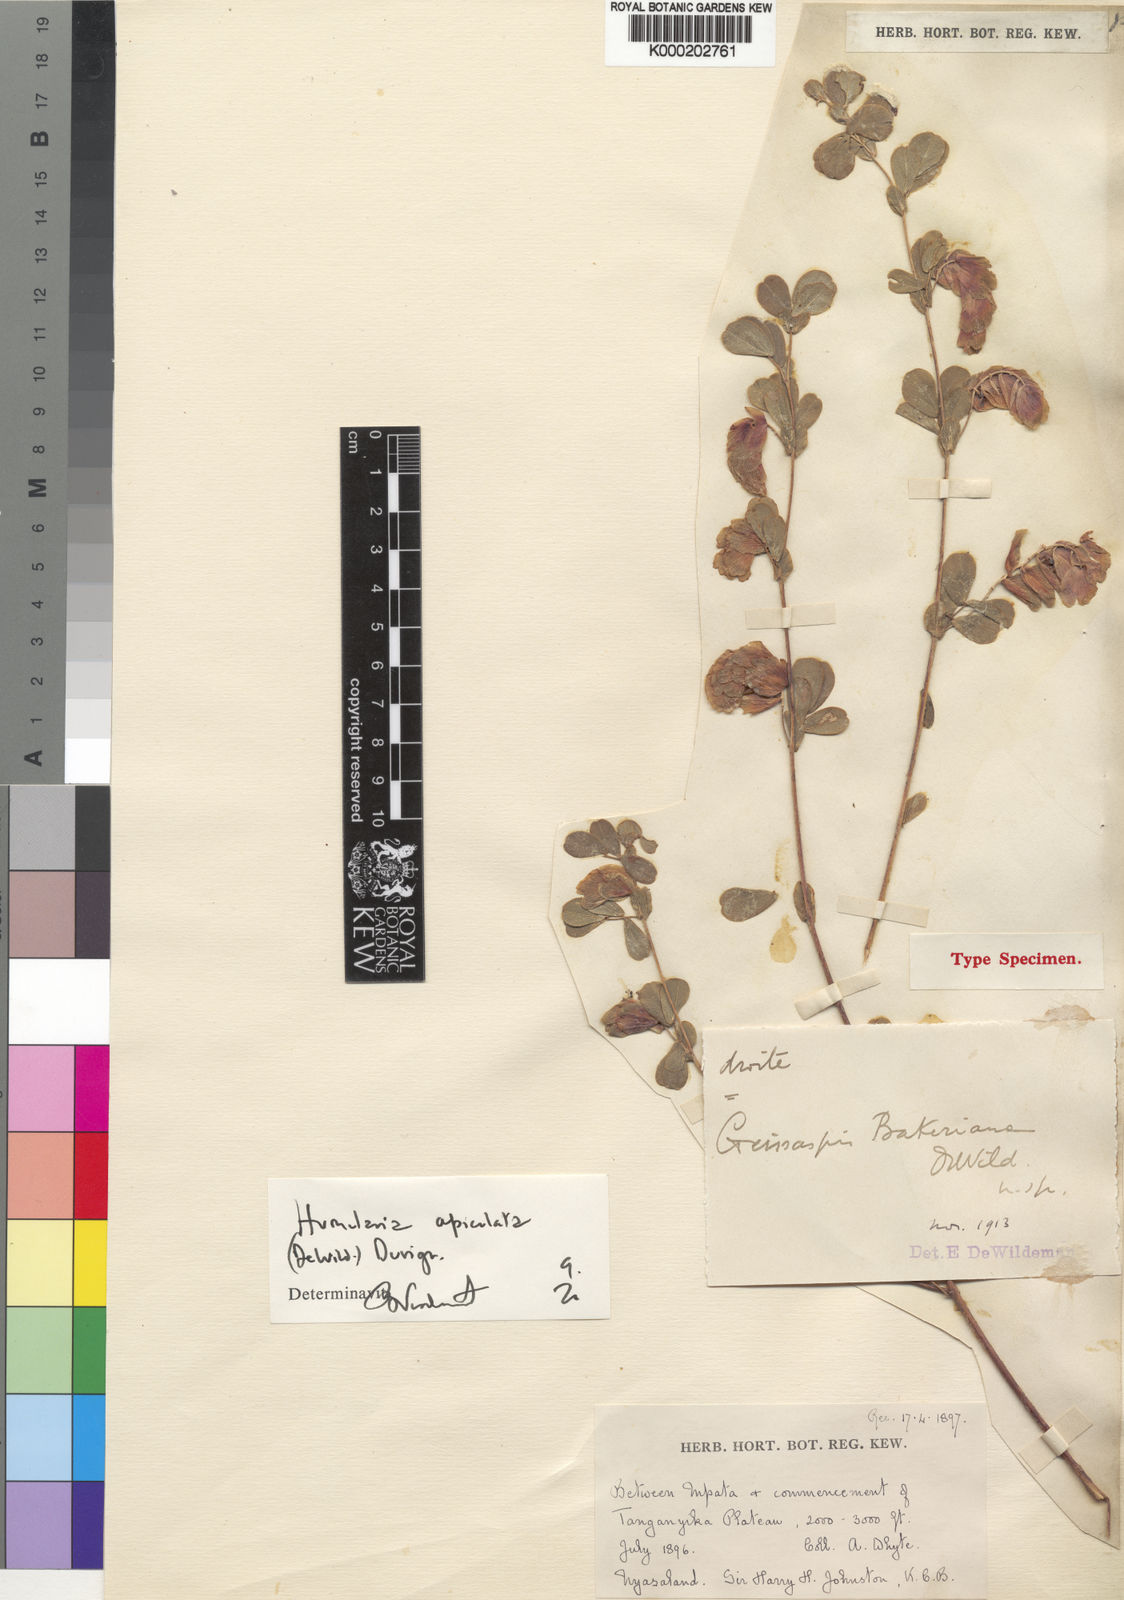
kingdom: Plantae
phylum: Tracheophyta
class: Magnoliopsida
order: Fabales
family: Fabaceae
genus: Humularia
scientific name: Humularia apiculata
